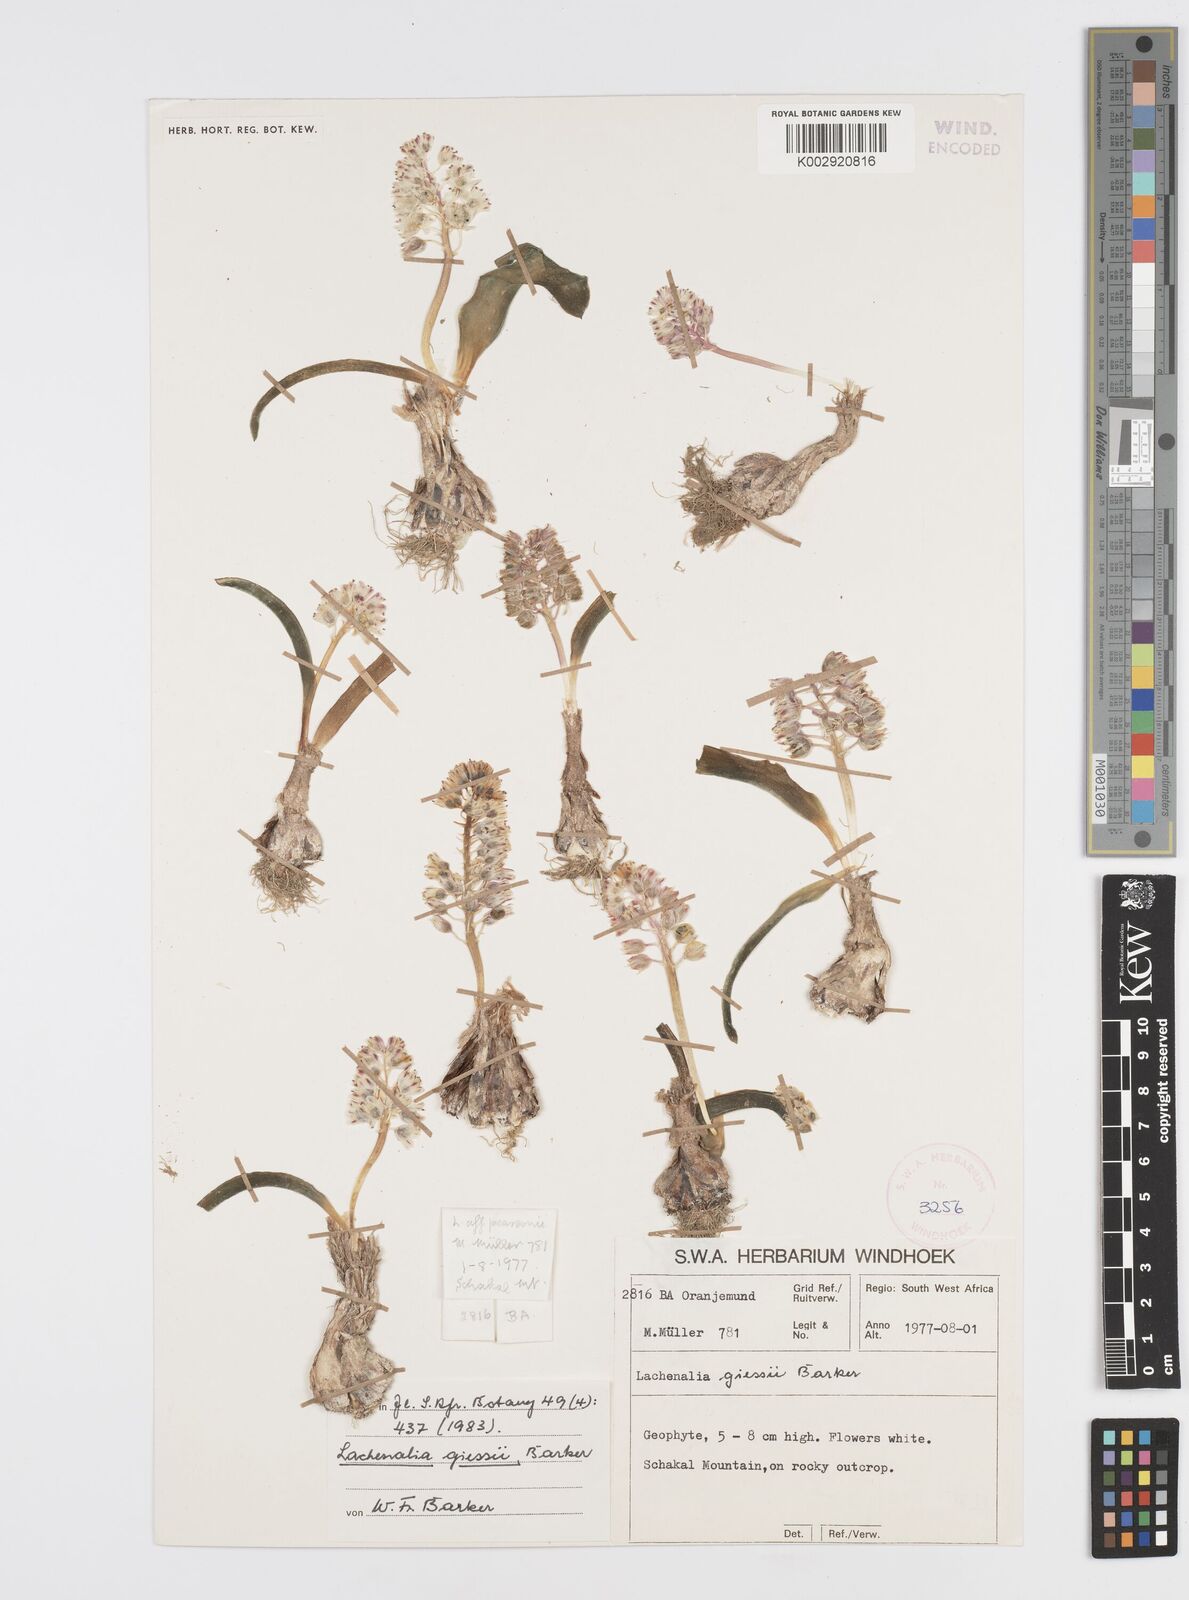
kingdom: Plantae
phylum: Tracheophyta
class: Liliopsida
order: Asparagales
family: Asparagaceae
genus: Lachenalia
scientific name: Lachenalia giessii
